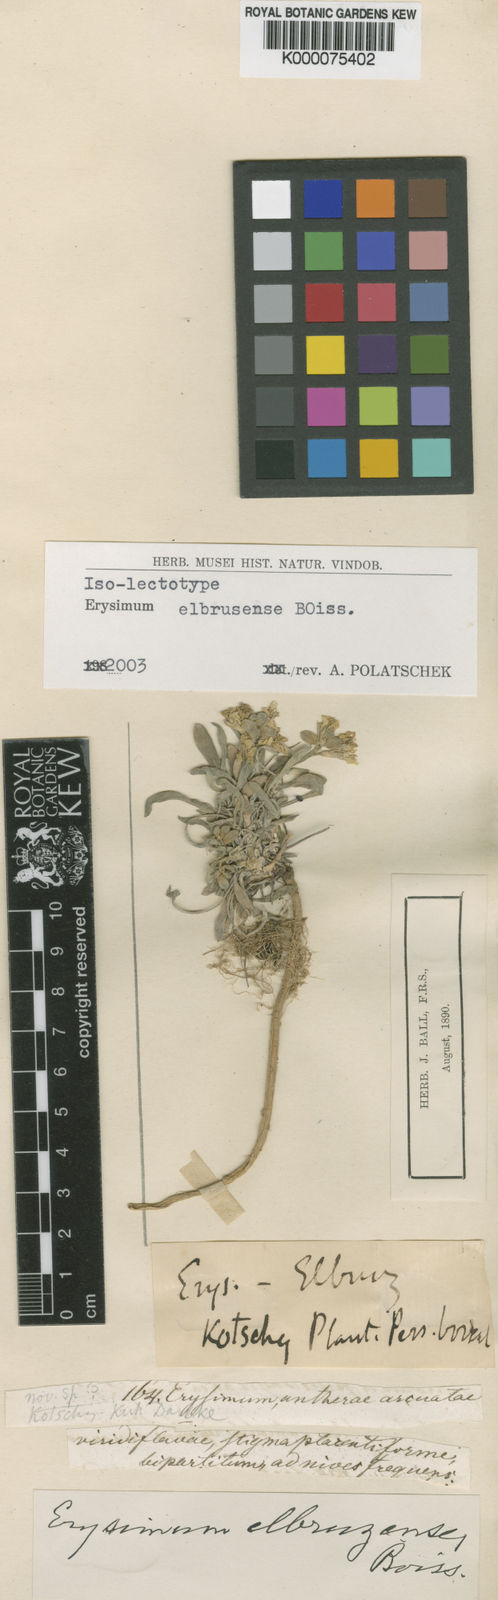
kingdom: Plantae
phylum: Tracheophyta
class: Magnoliopsida
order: Brassicales
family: Brassicaceae
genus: Erysimum
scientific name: Erysimum elbrusense
